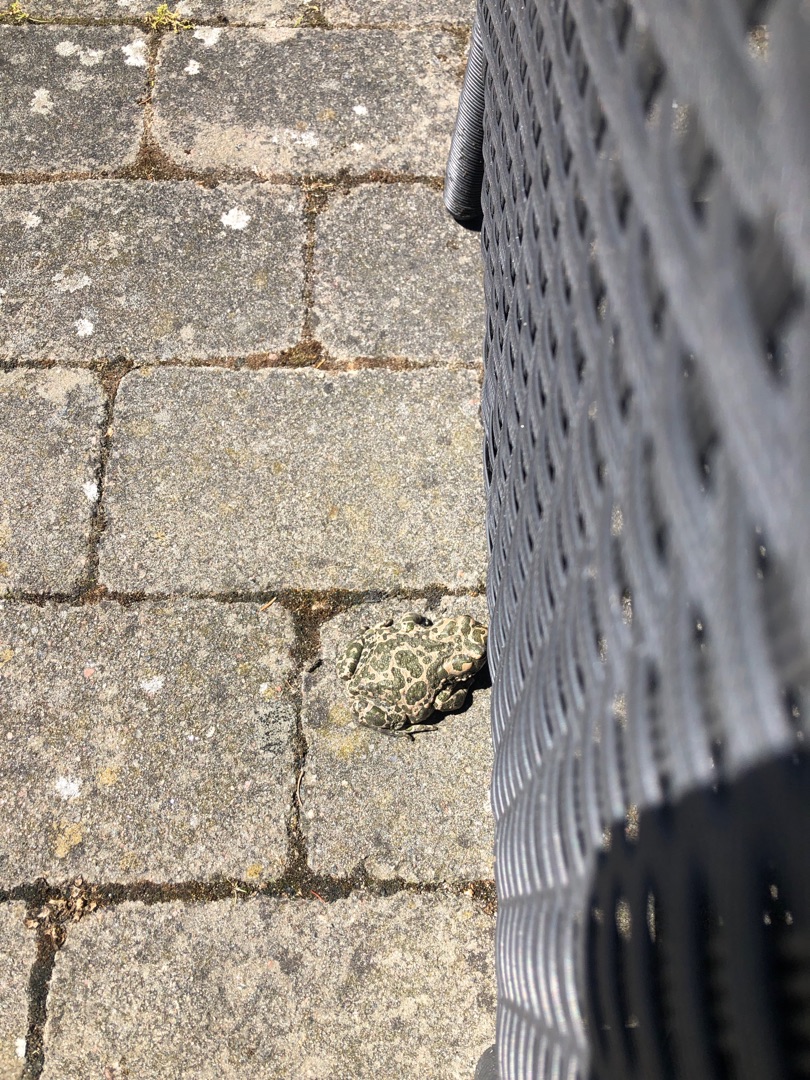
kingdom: Animalia
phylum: Chordata
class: Amphibia
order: Anura
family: Bufonidae
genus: Bufotes
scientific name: Bufotes viridis
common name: Grønbroget tudse
